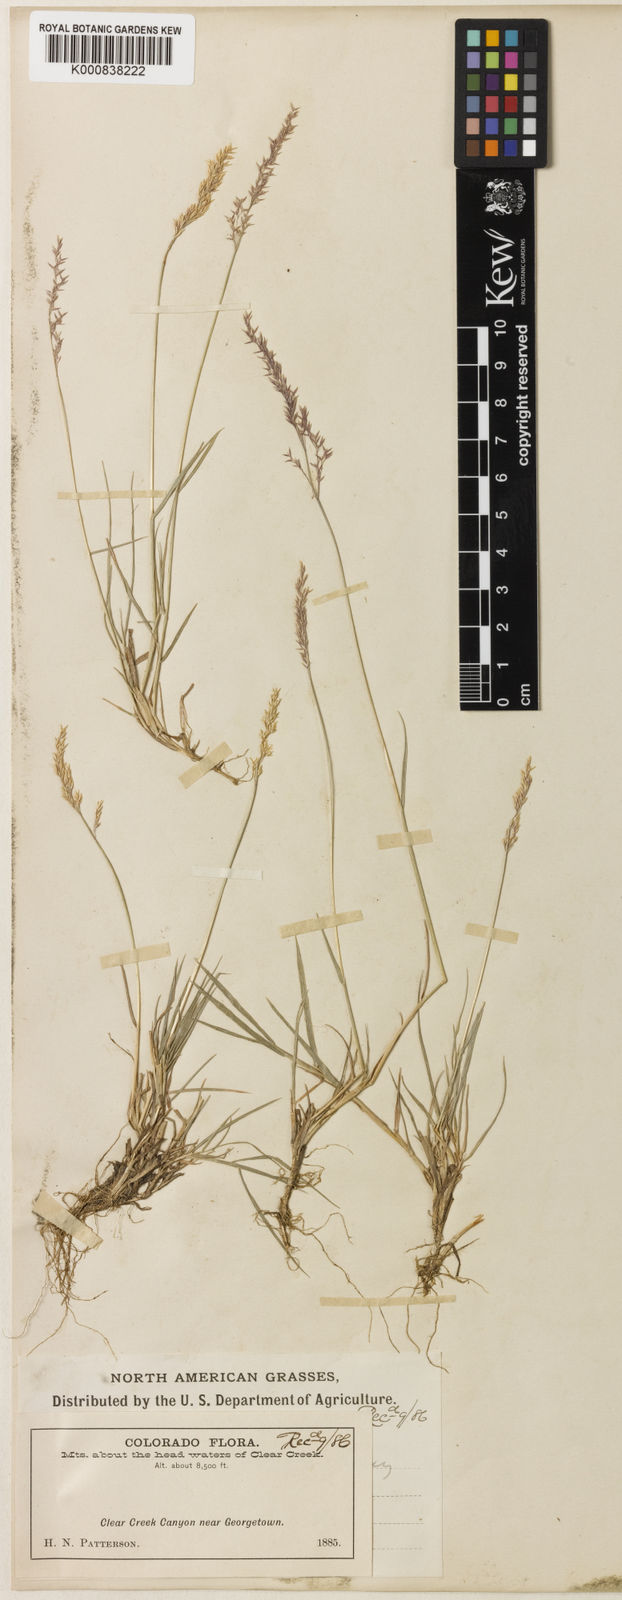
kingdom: Plantae
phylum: Tracheophyta
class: Liliopsida
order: Poales
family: Poaceae
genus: Agrostis
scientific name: Agrostis stolonifera
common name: Creeping bentgrass
